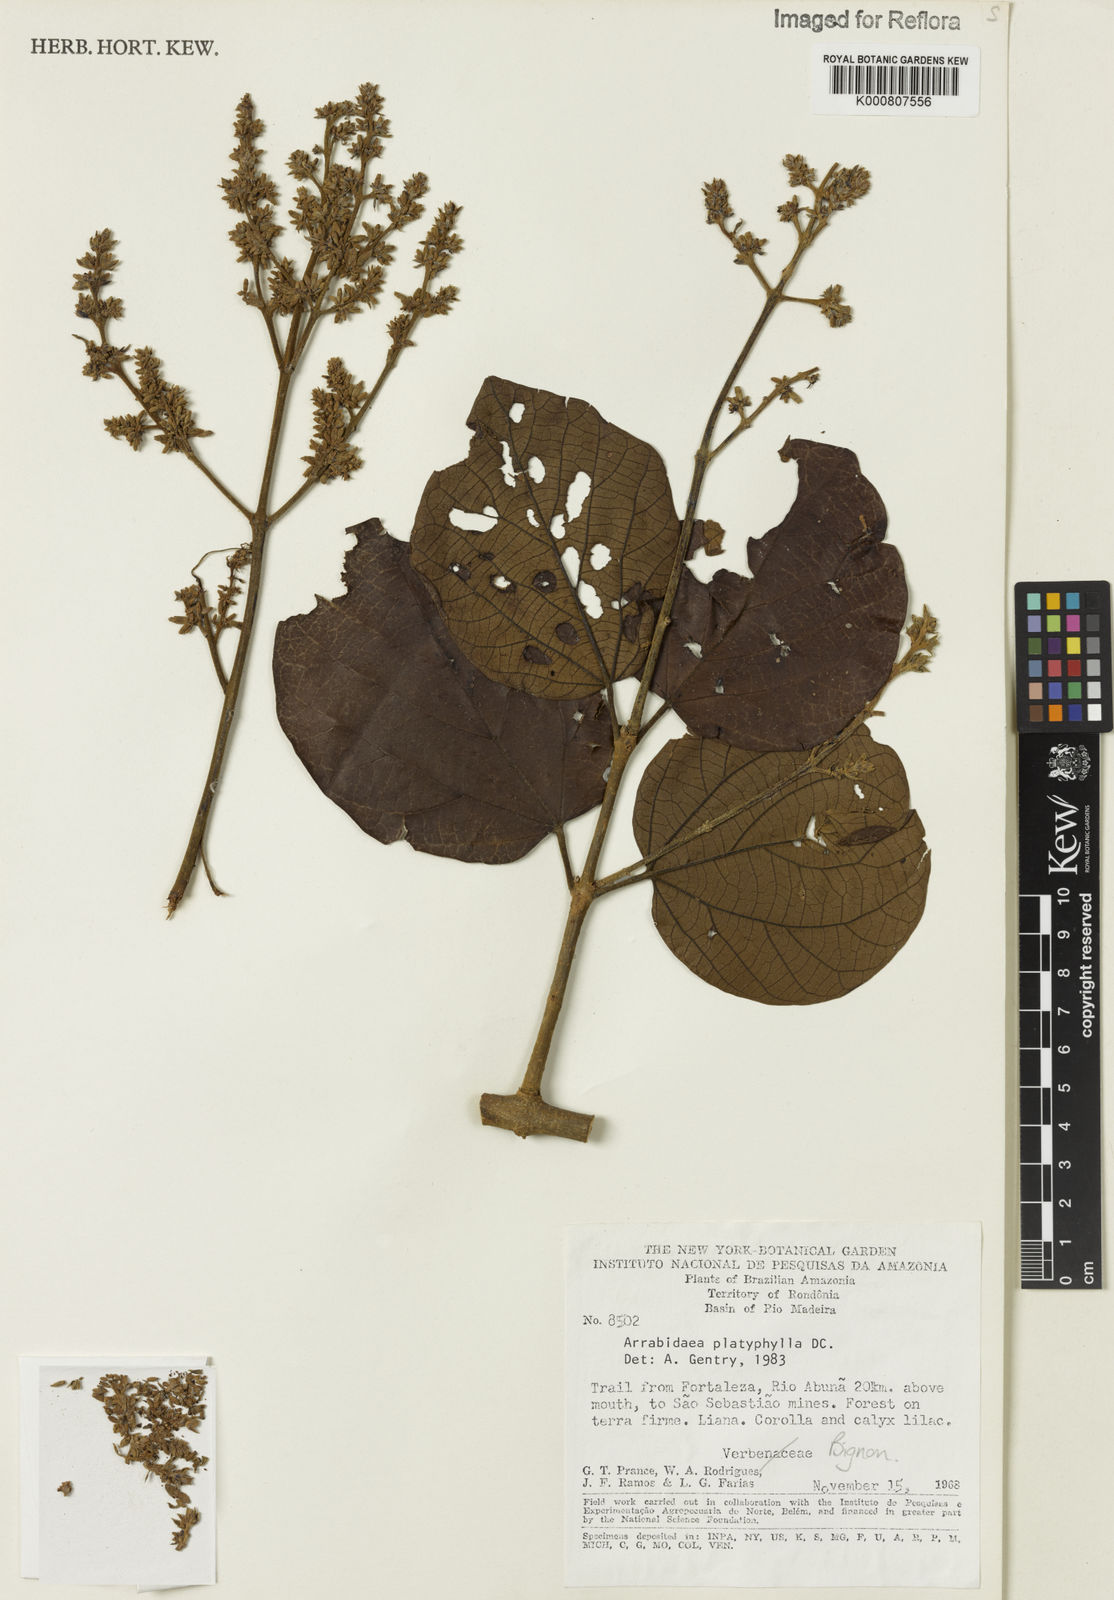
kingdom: Plantae
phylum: Tracheophyta
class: Magnoliopsida
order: Lamiales
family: Bignoniaceae
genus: Xylophragma
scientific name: Xylophragma platyphyllum
